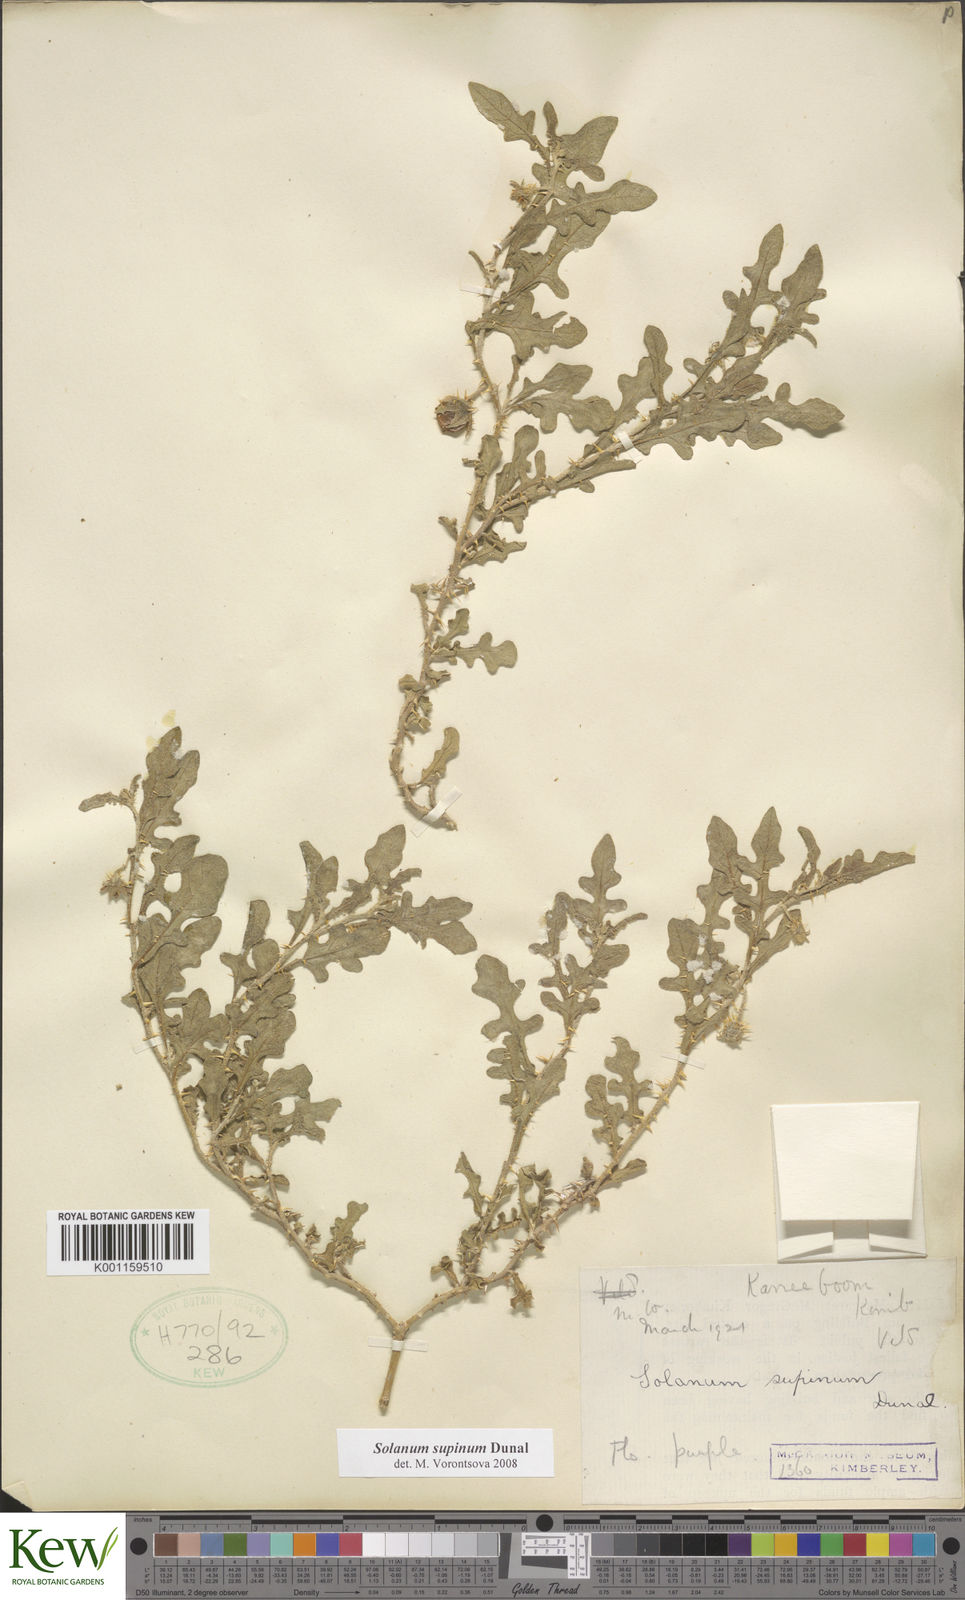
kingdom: Plantae
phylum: Tracheophyta
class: Magnoliopsida
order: Solanales
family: Solanaceae
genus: Solanum
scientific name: Solanum supinum
